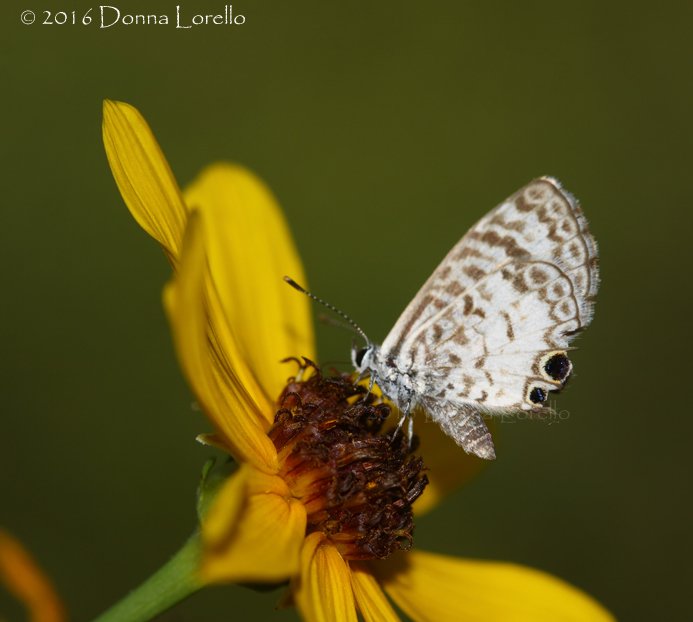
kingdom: Animalia
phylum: Arthropoda
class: Insecta
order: Lepidoptera
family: Lycaenidae
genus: Leptotes
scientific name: Leptotes cassius
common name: Cassius Blue
